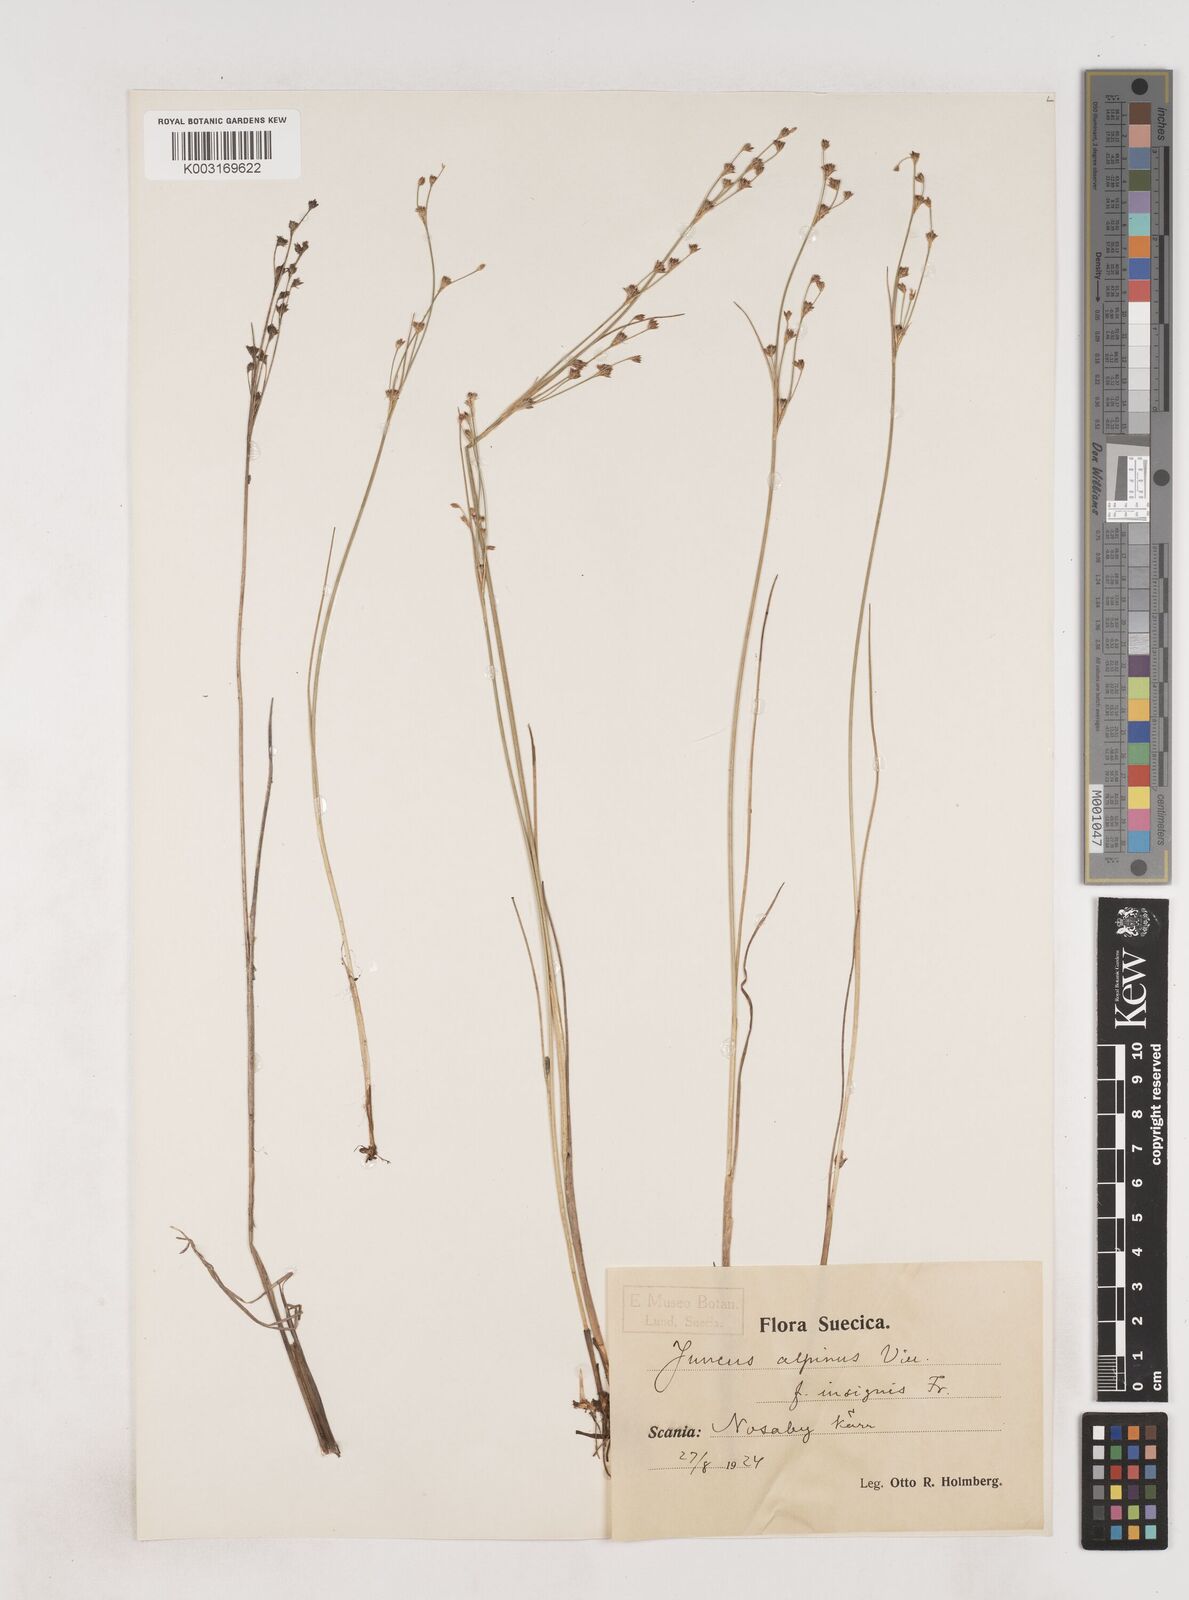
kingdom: Plantae
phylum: Tracheophyta
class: Liliopsida
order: Poales
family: Juncaceae
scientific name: Juncaceae
